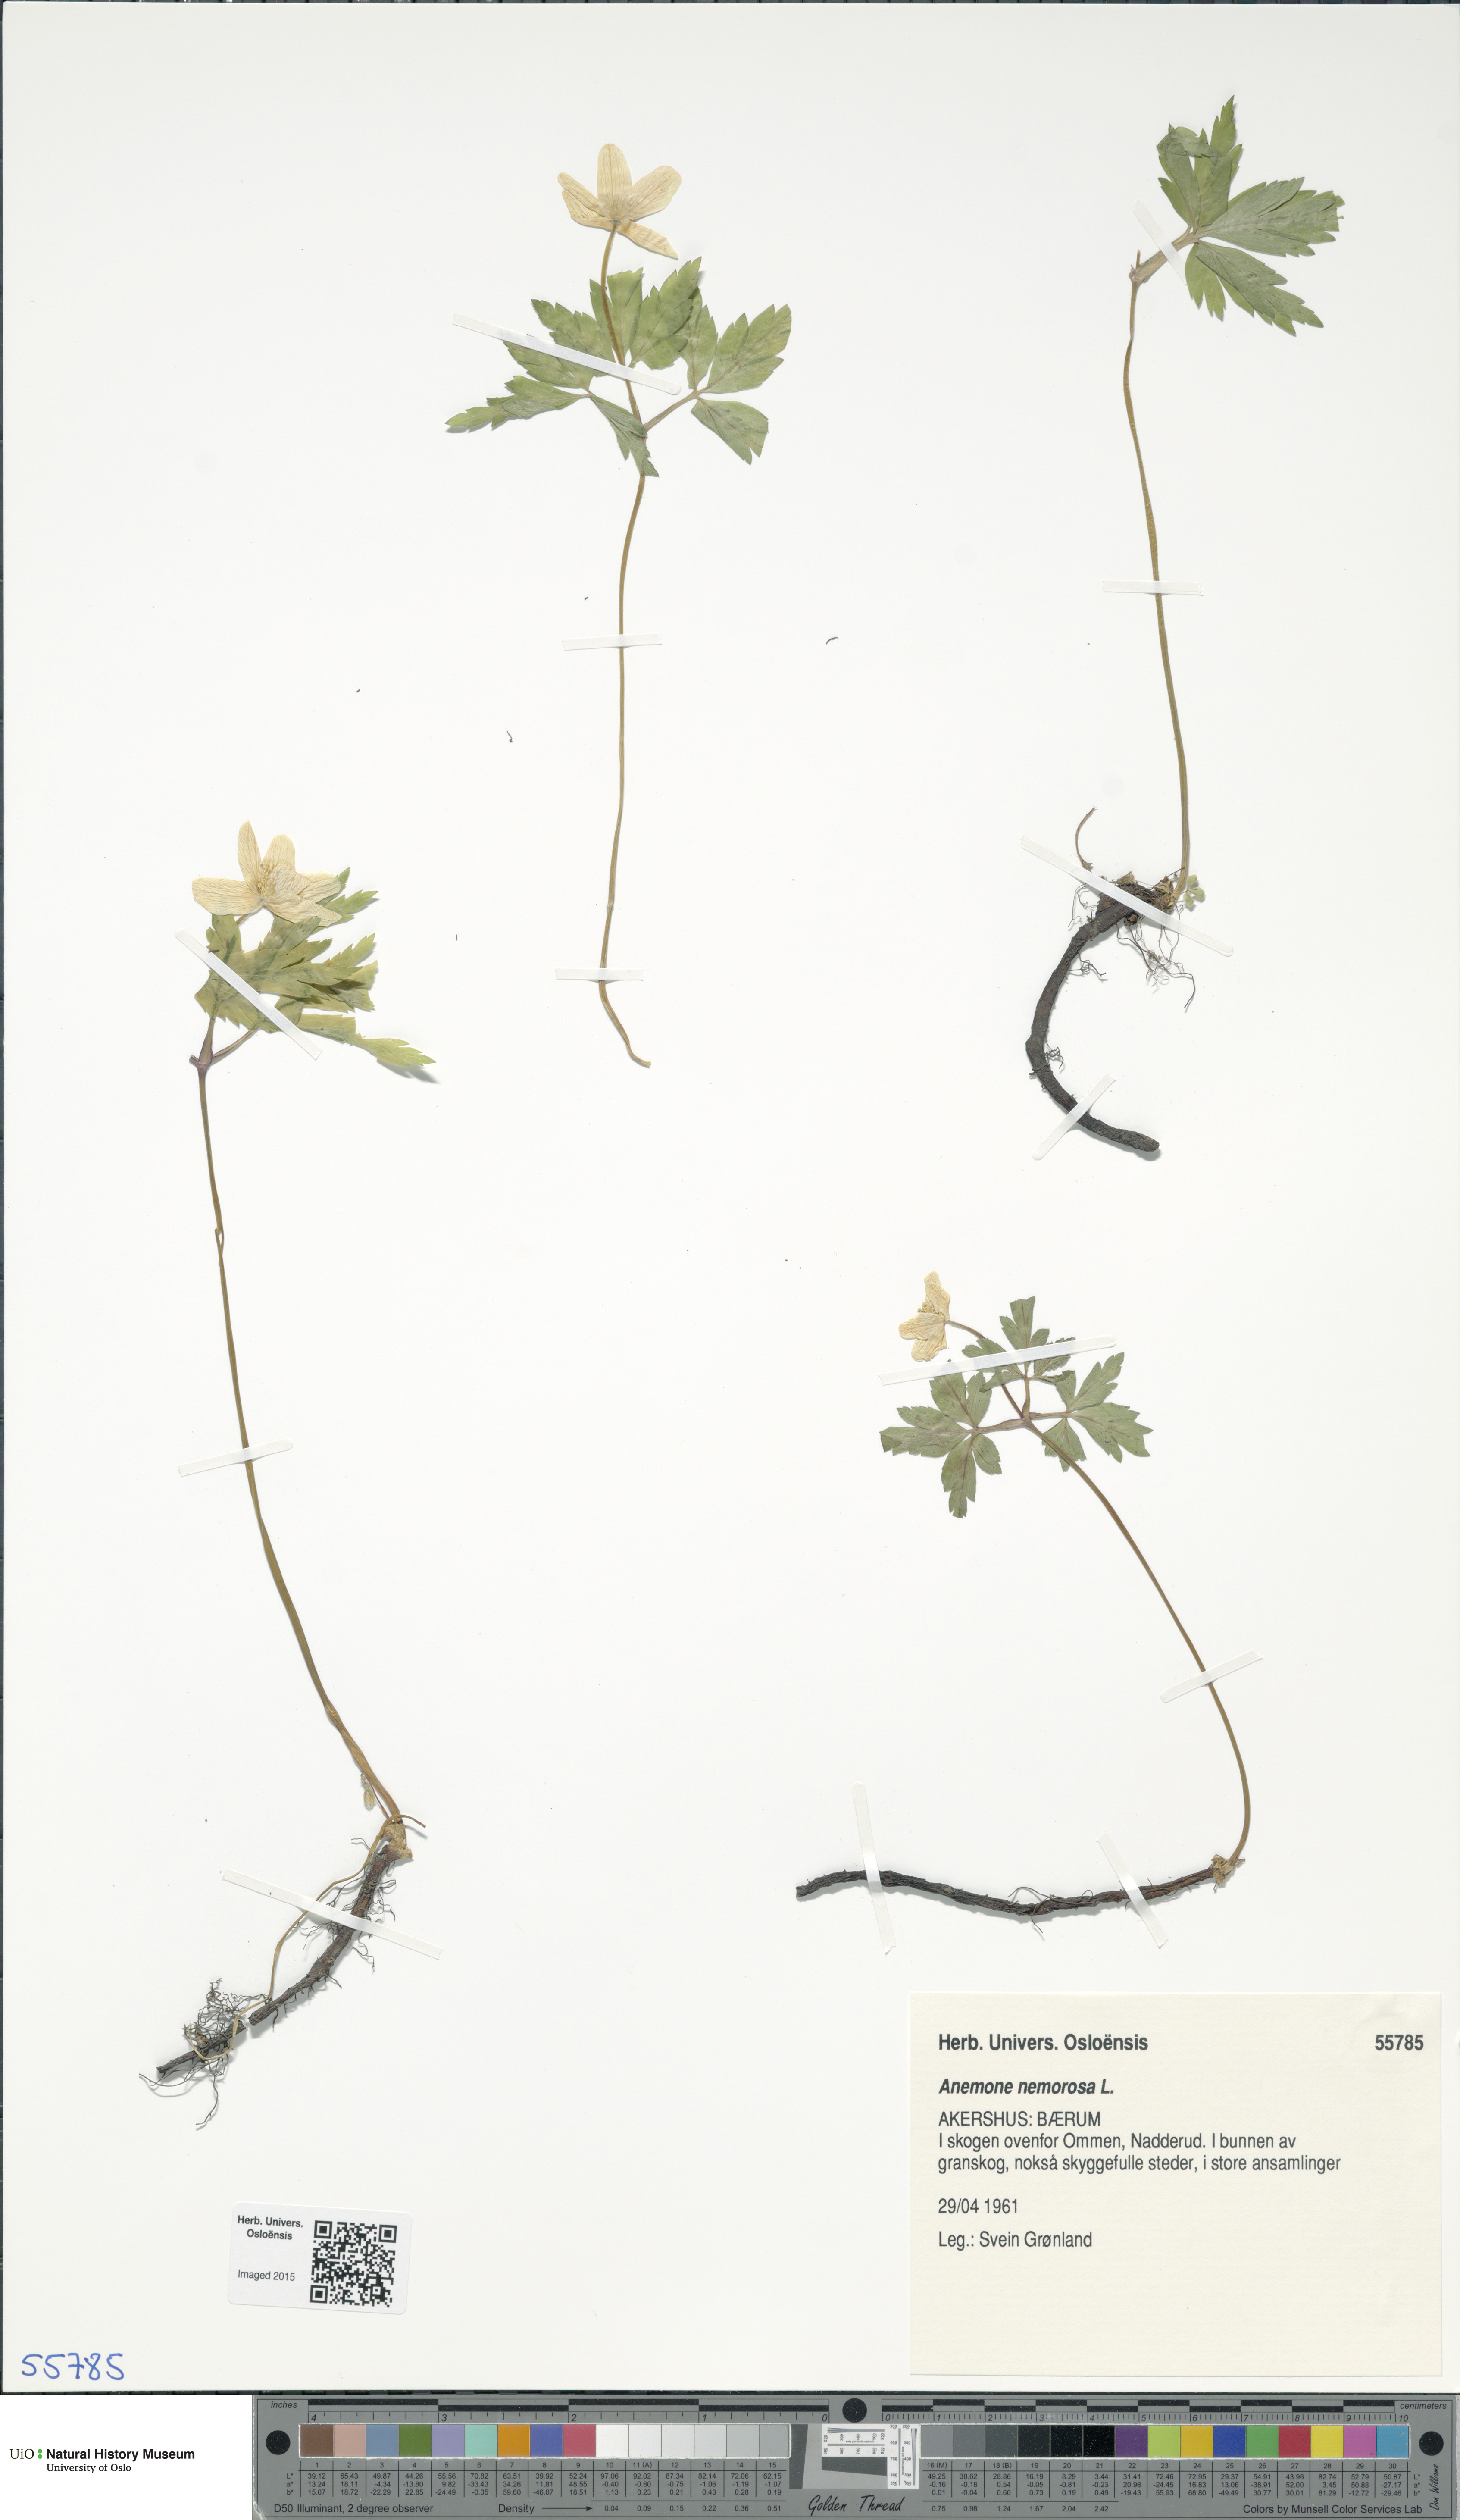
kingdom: Plantae
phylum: Tracheophyta
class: Magnoliopsida
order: Ranunculales
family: Ranunculaceae
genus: Anemone
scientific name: Anemone nemorosa
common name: Wood anemone
